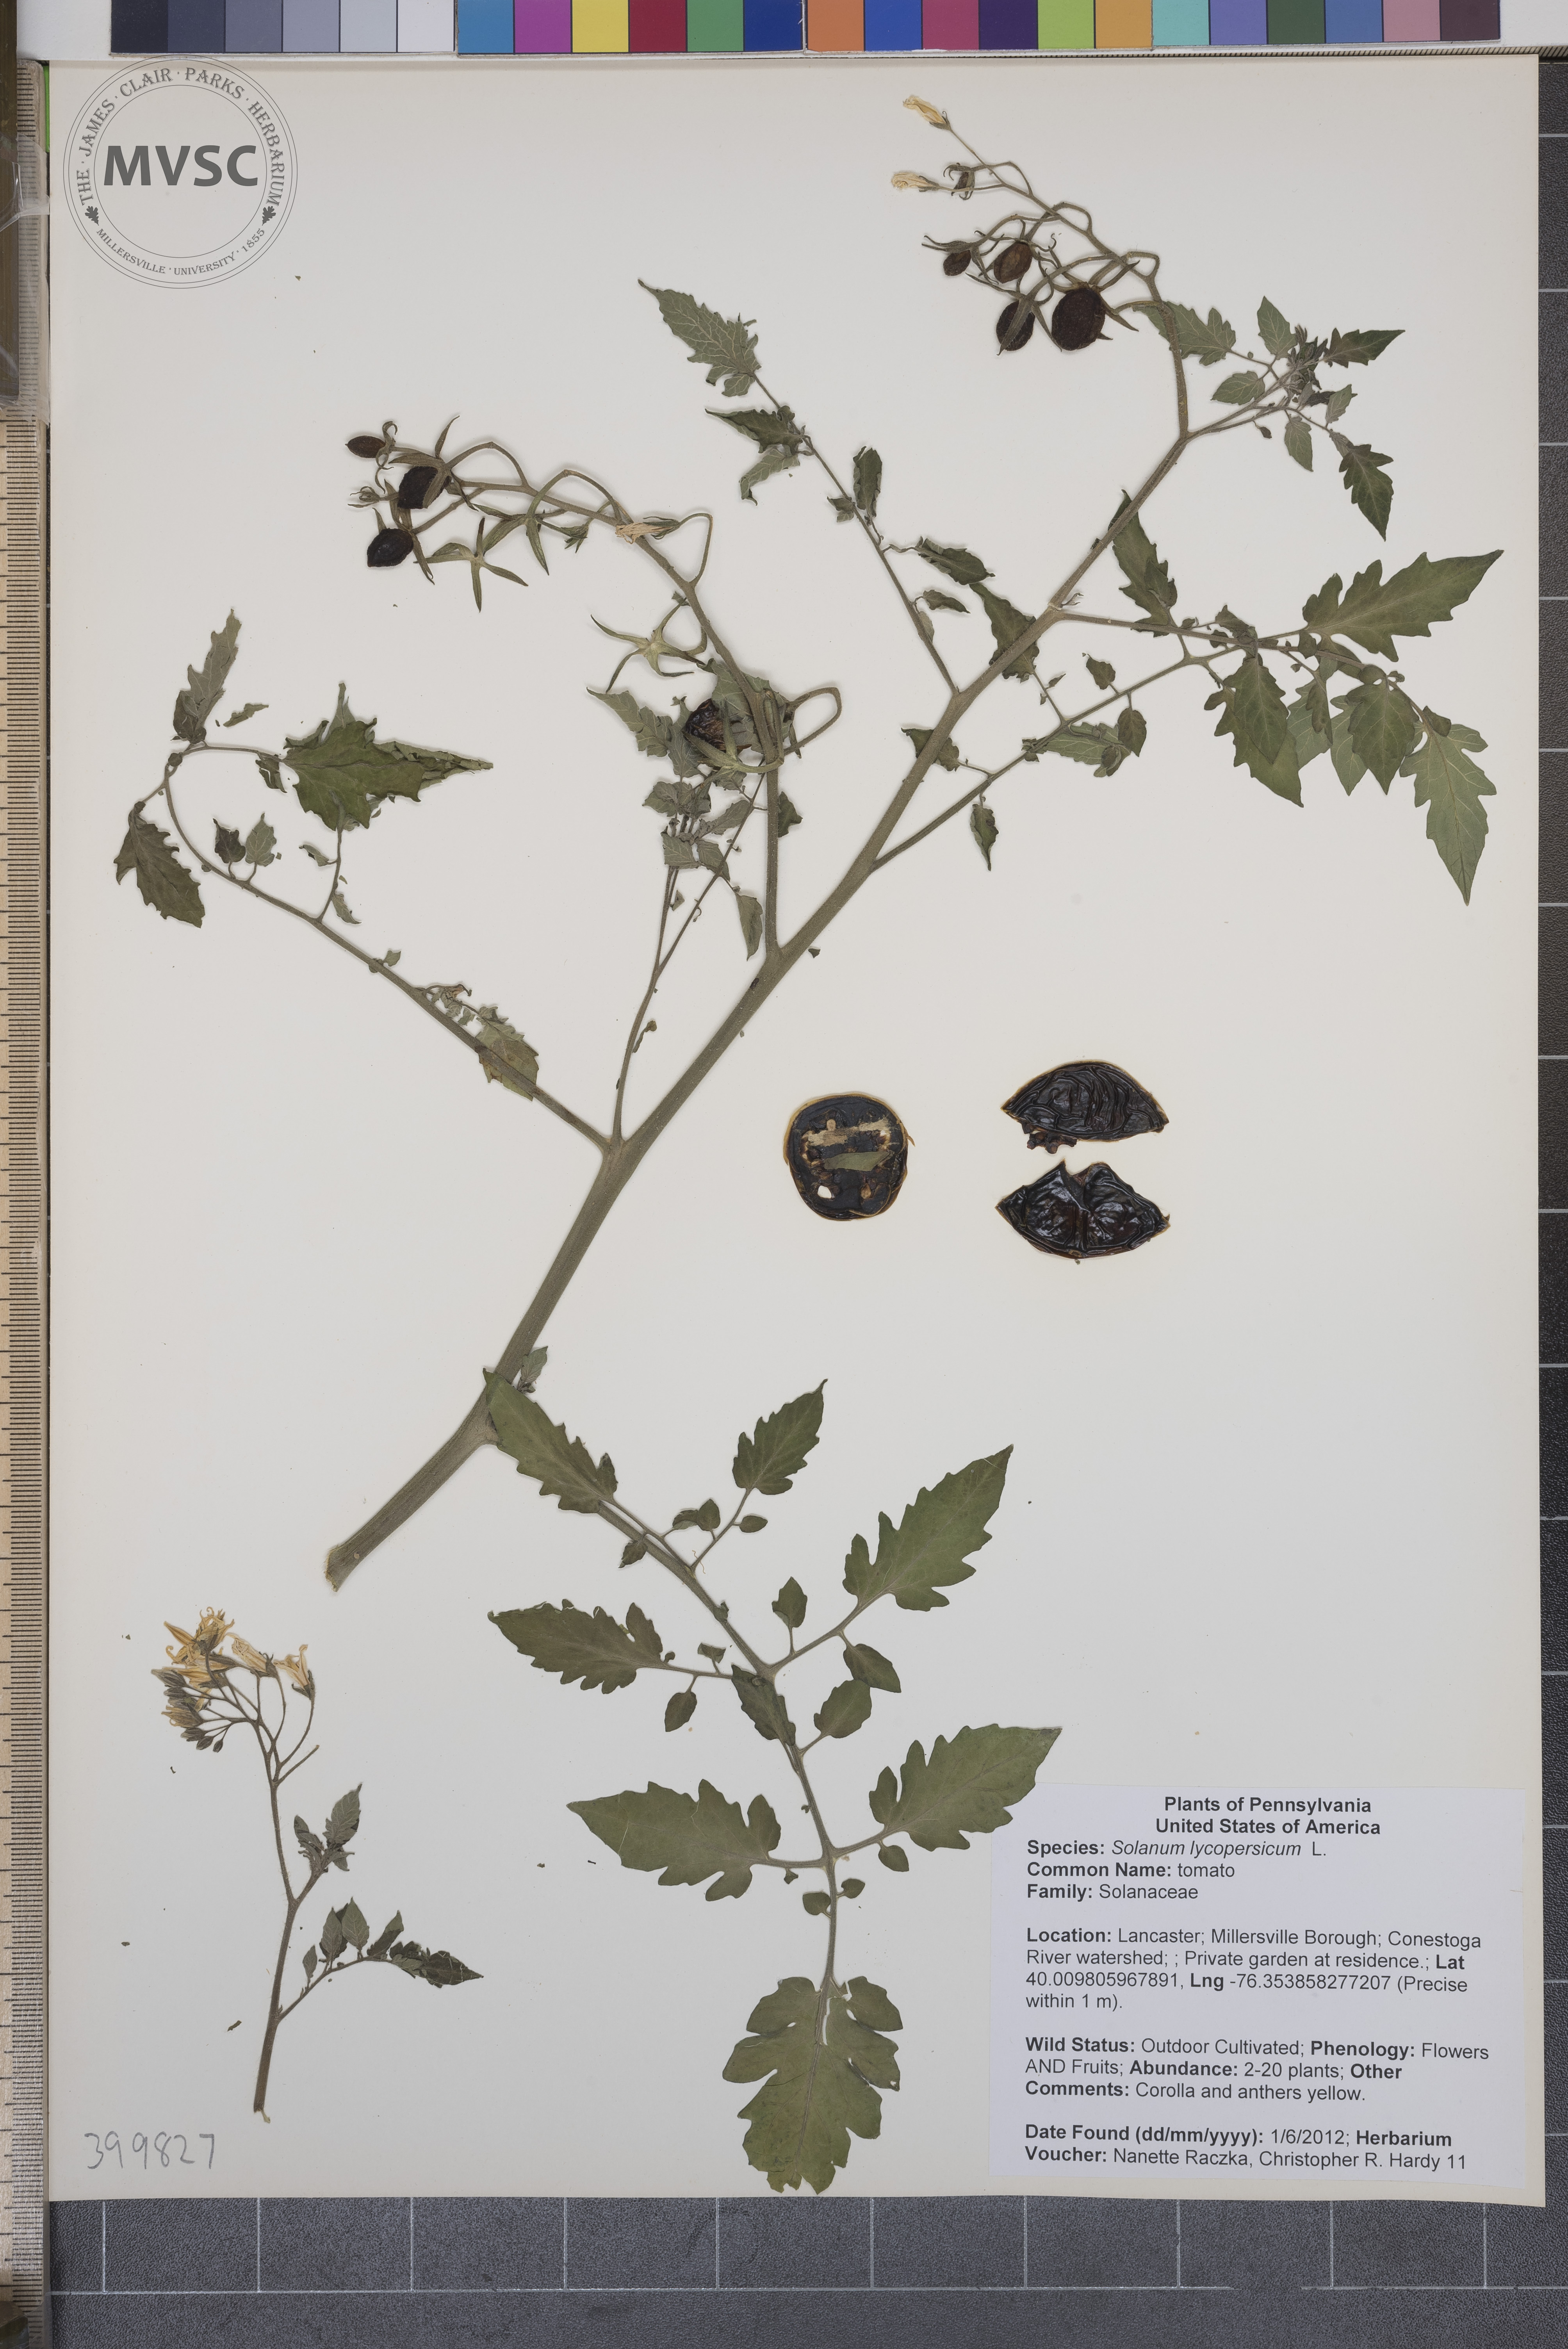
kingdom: Plantae
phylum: Tracheophyta
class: Magnoliopsida
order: Solanales
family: Solanaceae
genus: Solanum
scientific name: Solanum lycopersicum
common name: tomato
